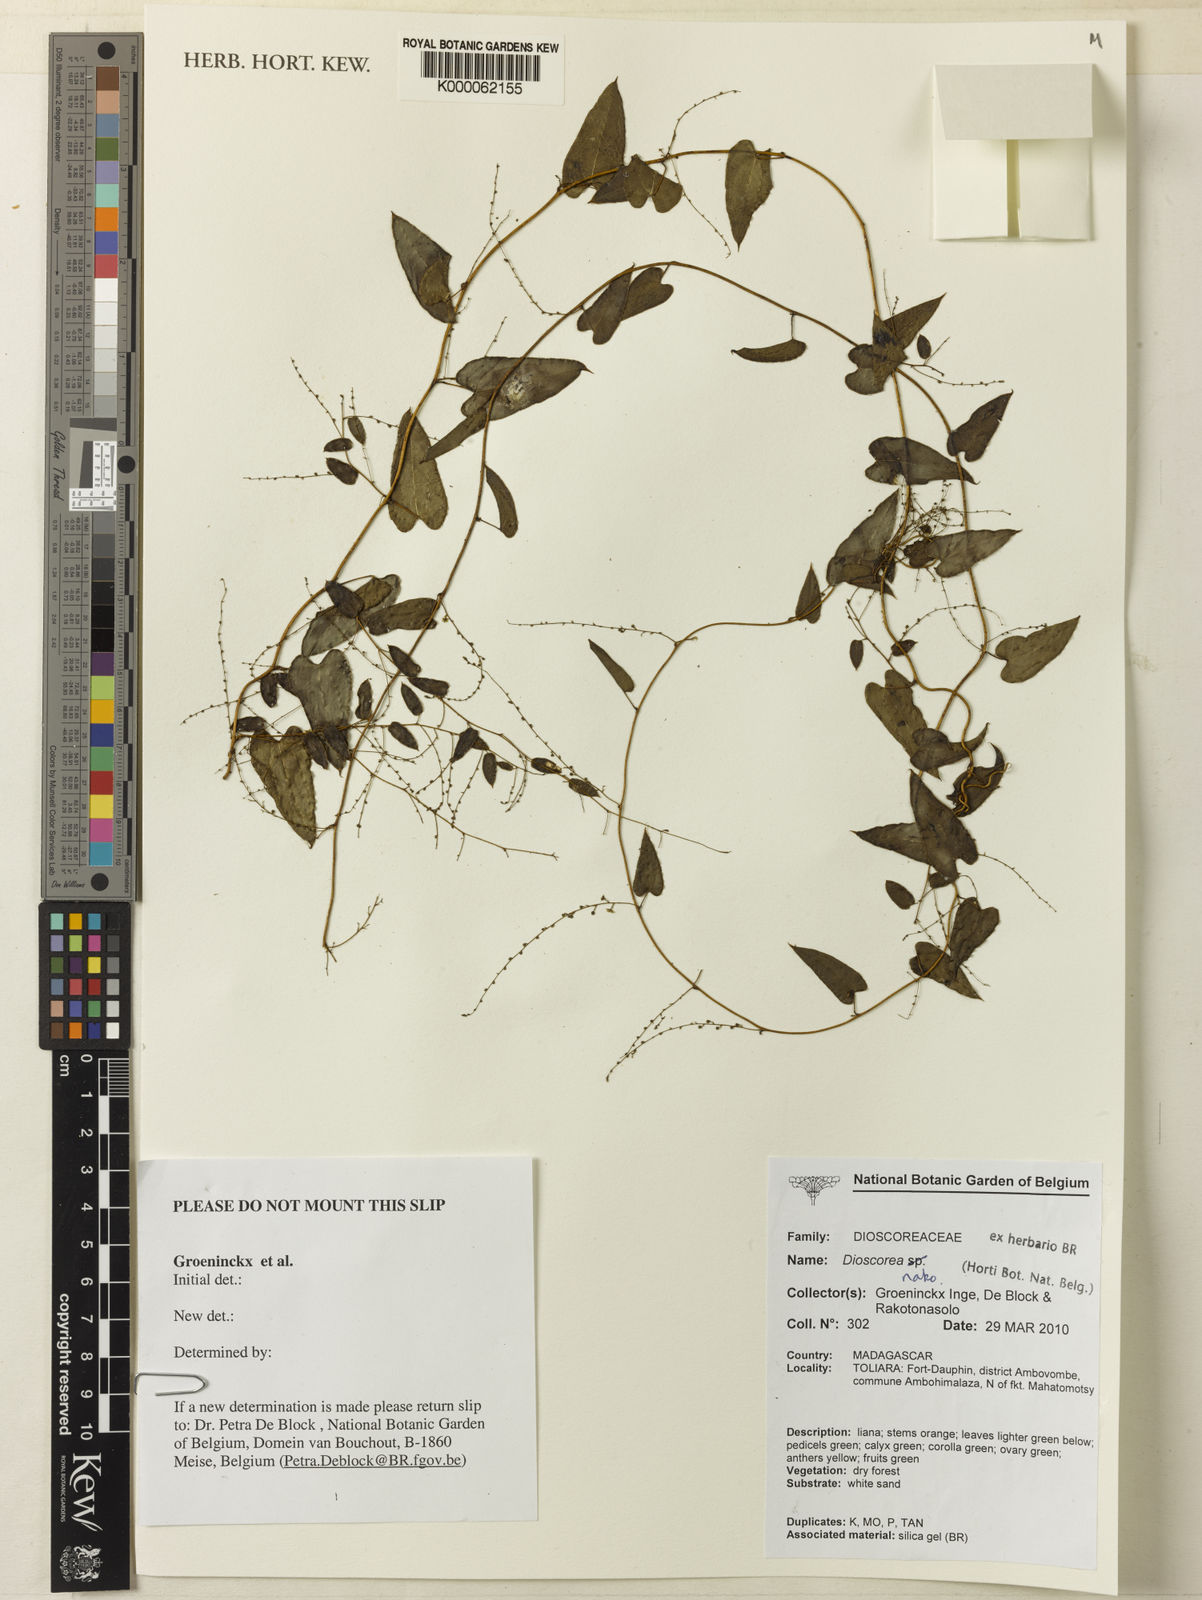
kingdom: Plantae
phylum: Tracheophyta
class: Liliopsida
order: Dioscoreales
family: Dioscoreaceae
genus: Dioscorea
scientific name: Dioscorea nako
